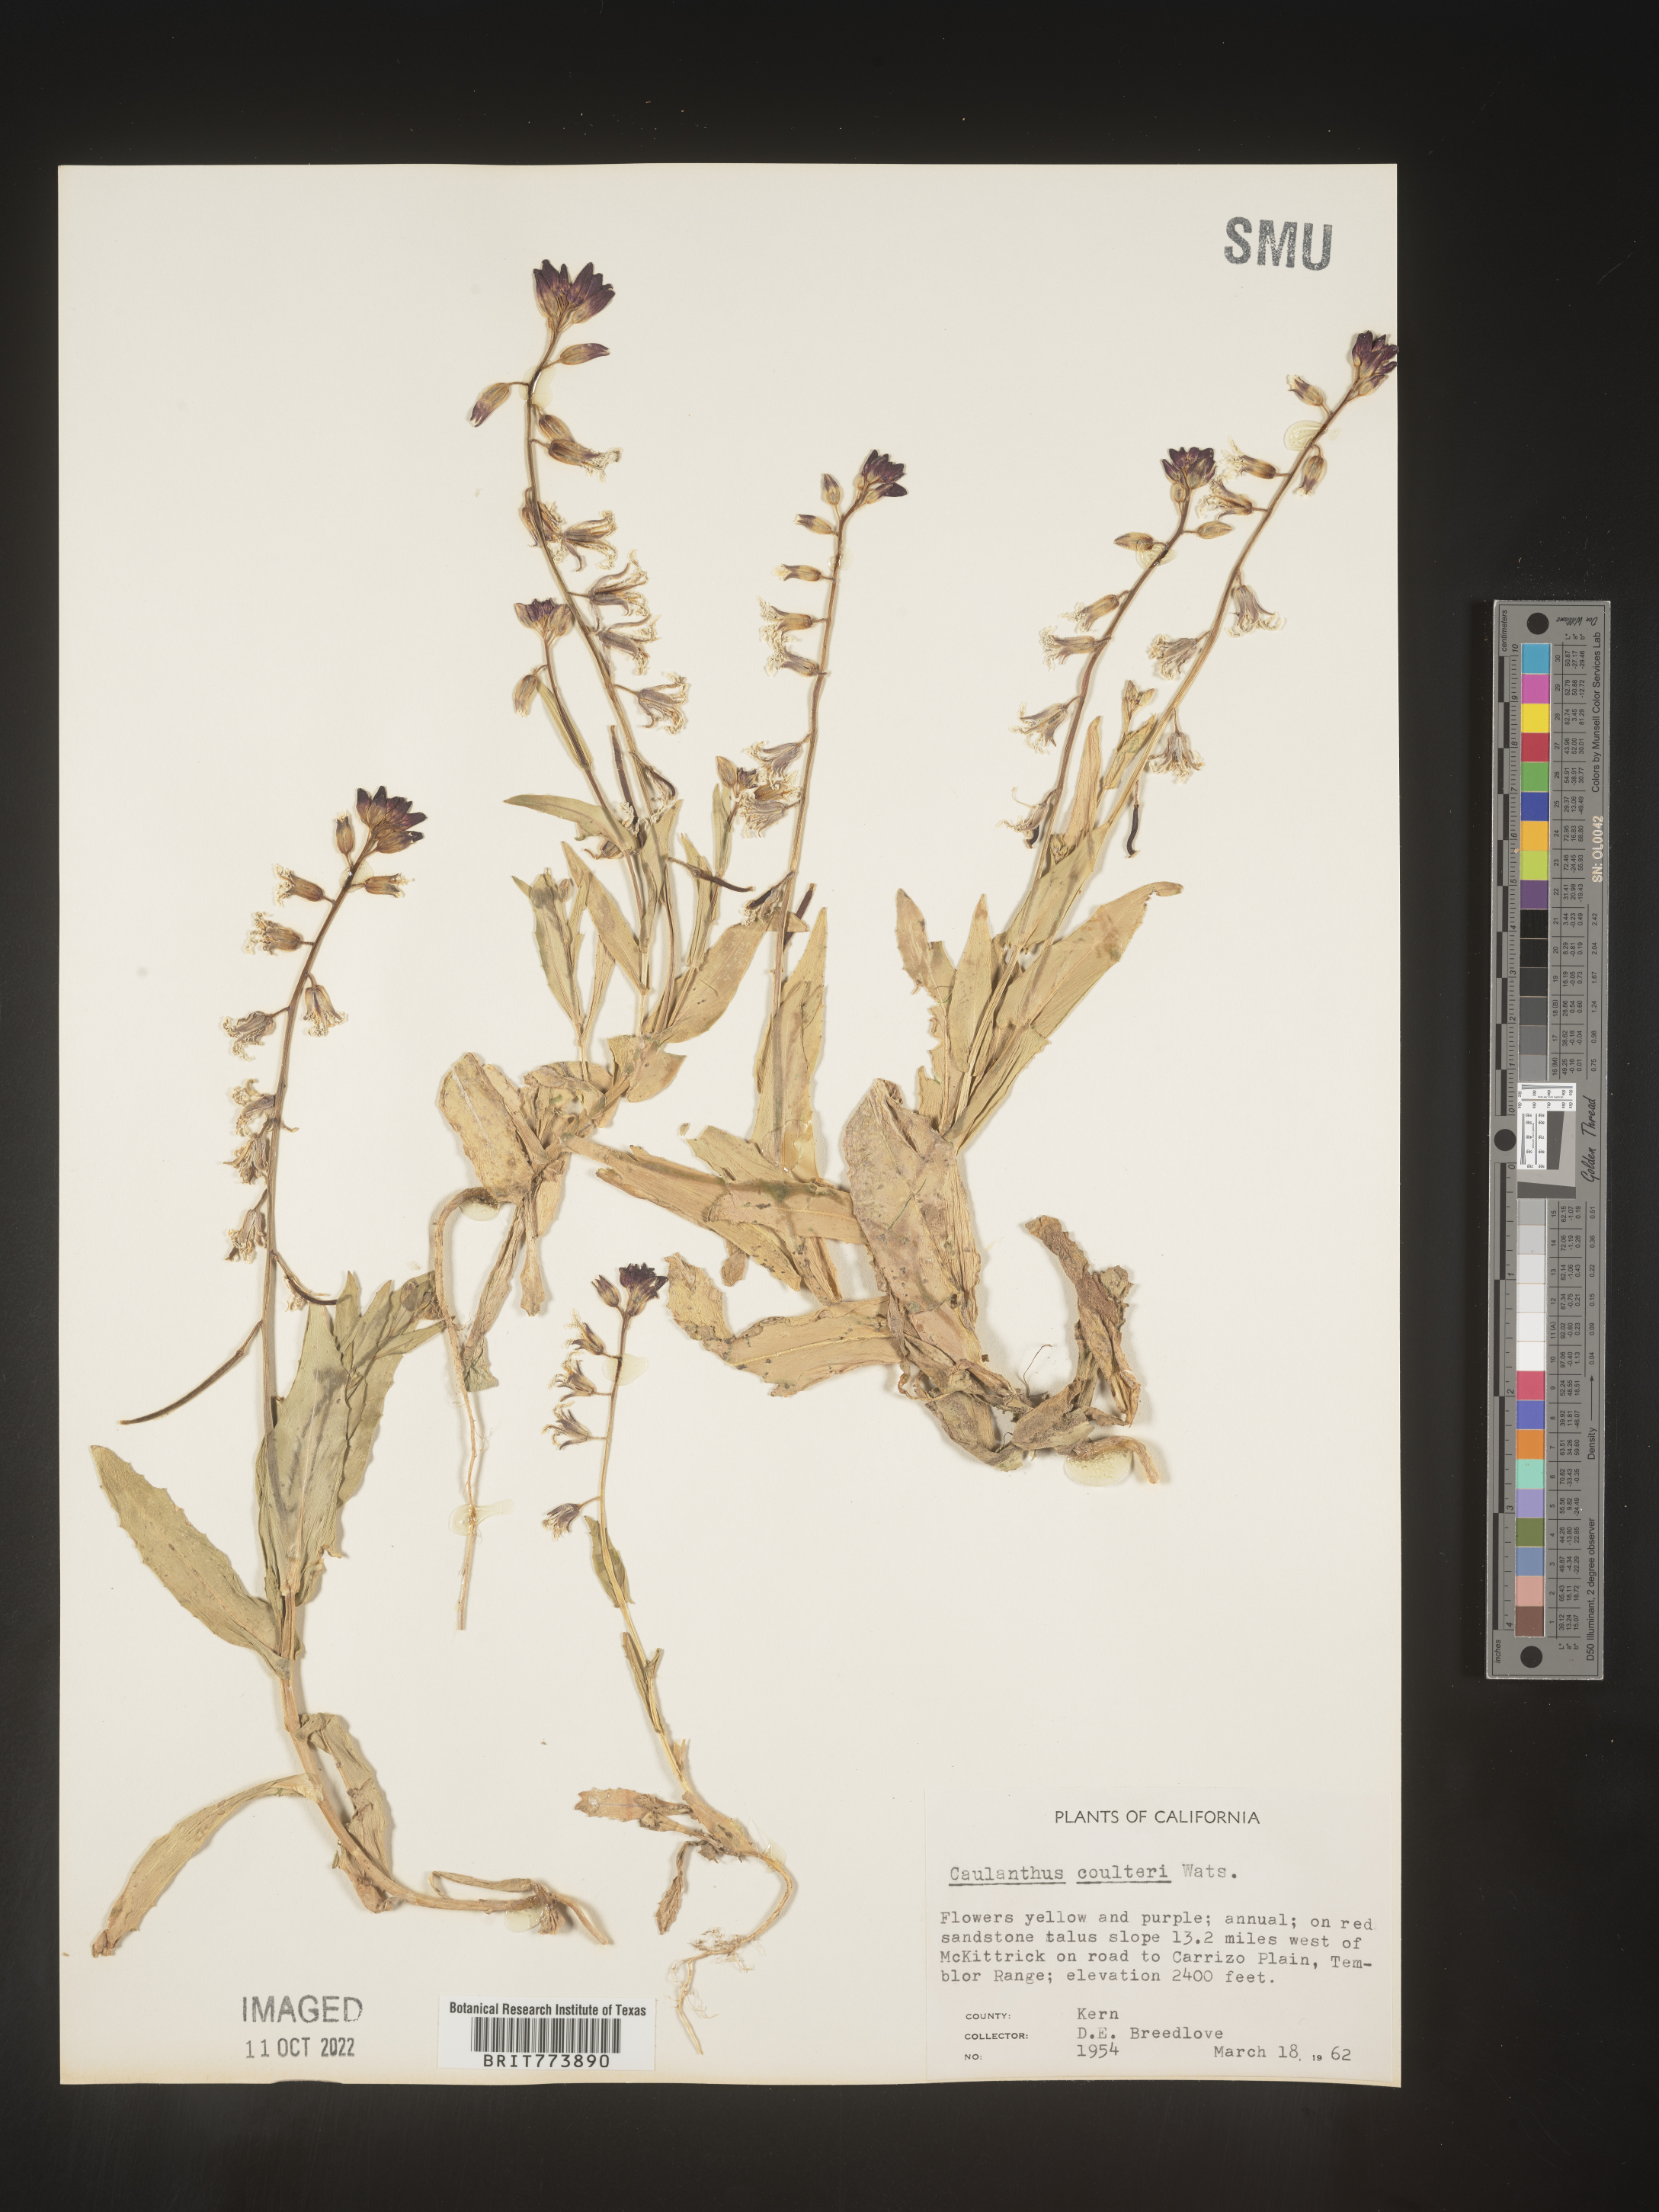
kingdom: Plantae
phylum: Tracheophyta
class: Magnoliopsida
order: Brassicales
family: Brassicaceae
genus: Streptanthus
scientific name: Streptanthus
